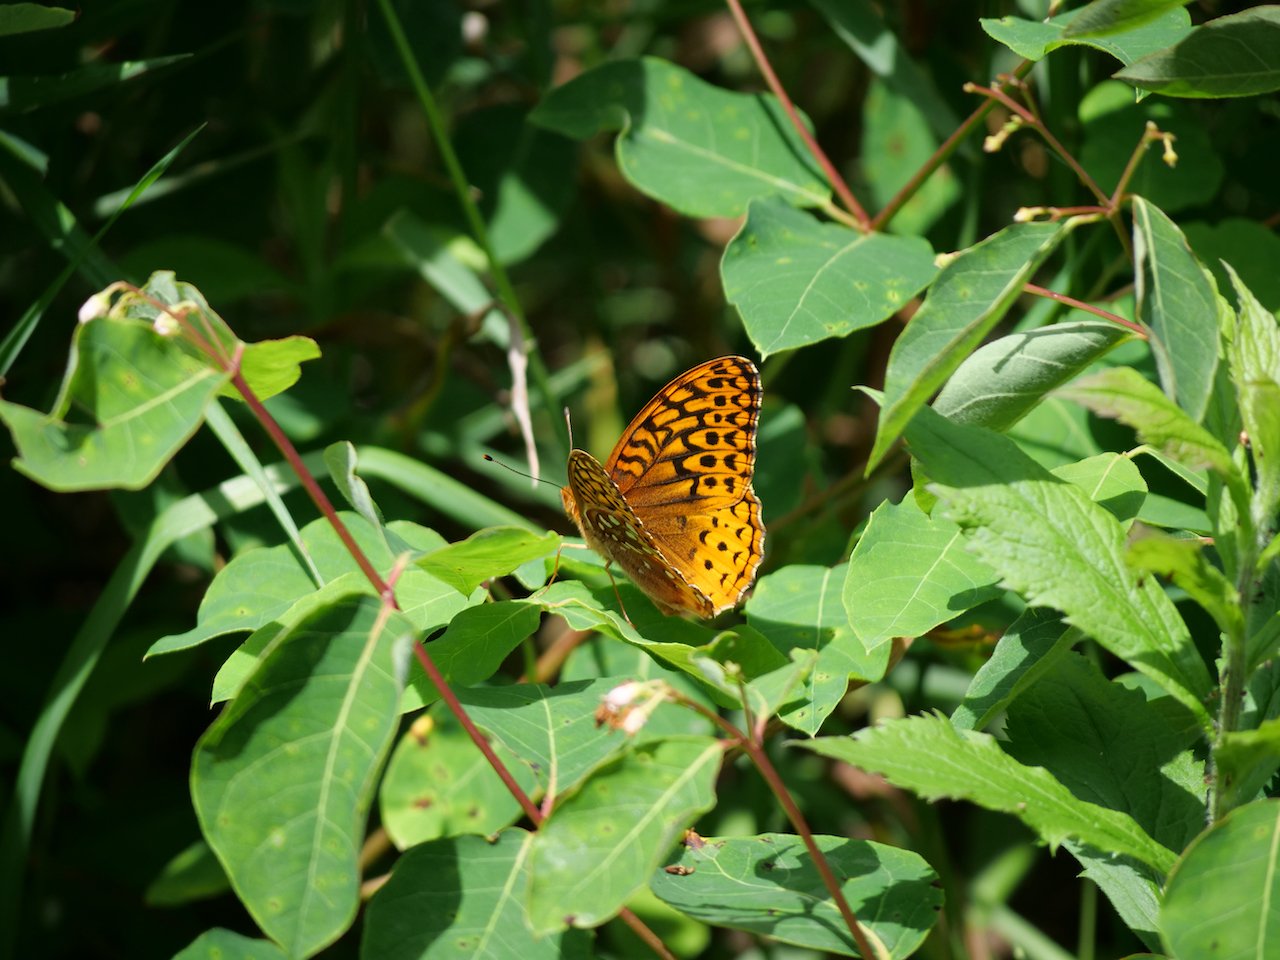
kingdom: Animalia
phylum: Arthropoda
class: Insecta
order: Lepidoptera
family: Nymphalidae
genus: Speyeria
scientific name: Speyeria cybele
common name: Great Spangled Fritillary
